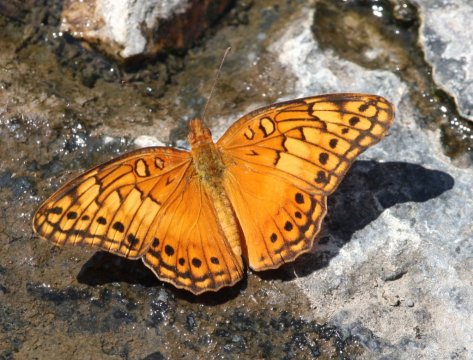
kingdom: Animalia
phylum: Arthropoda
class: Insecta
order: Lepidoptera
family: Nymphalidae
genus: Euptoieta
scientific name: Euptoieta hegesia
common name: Mexican Fritillary
